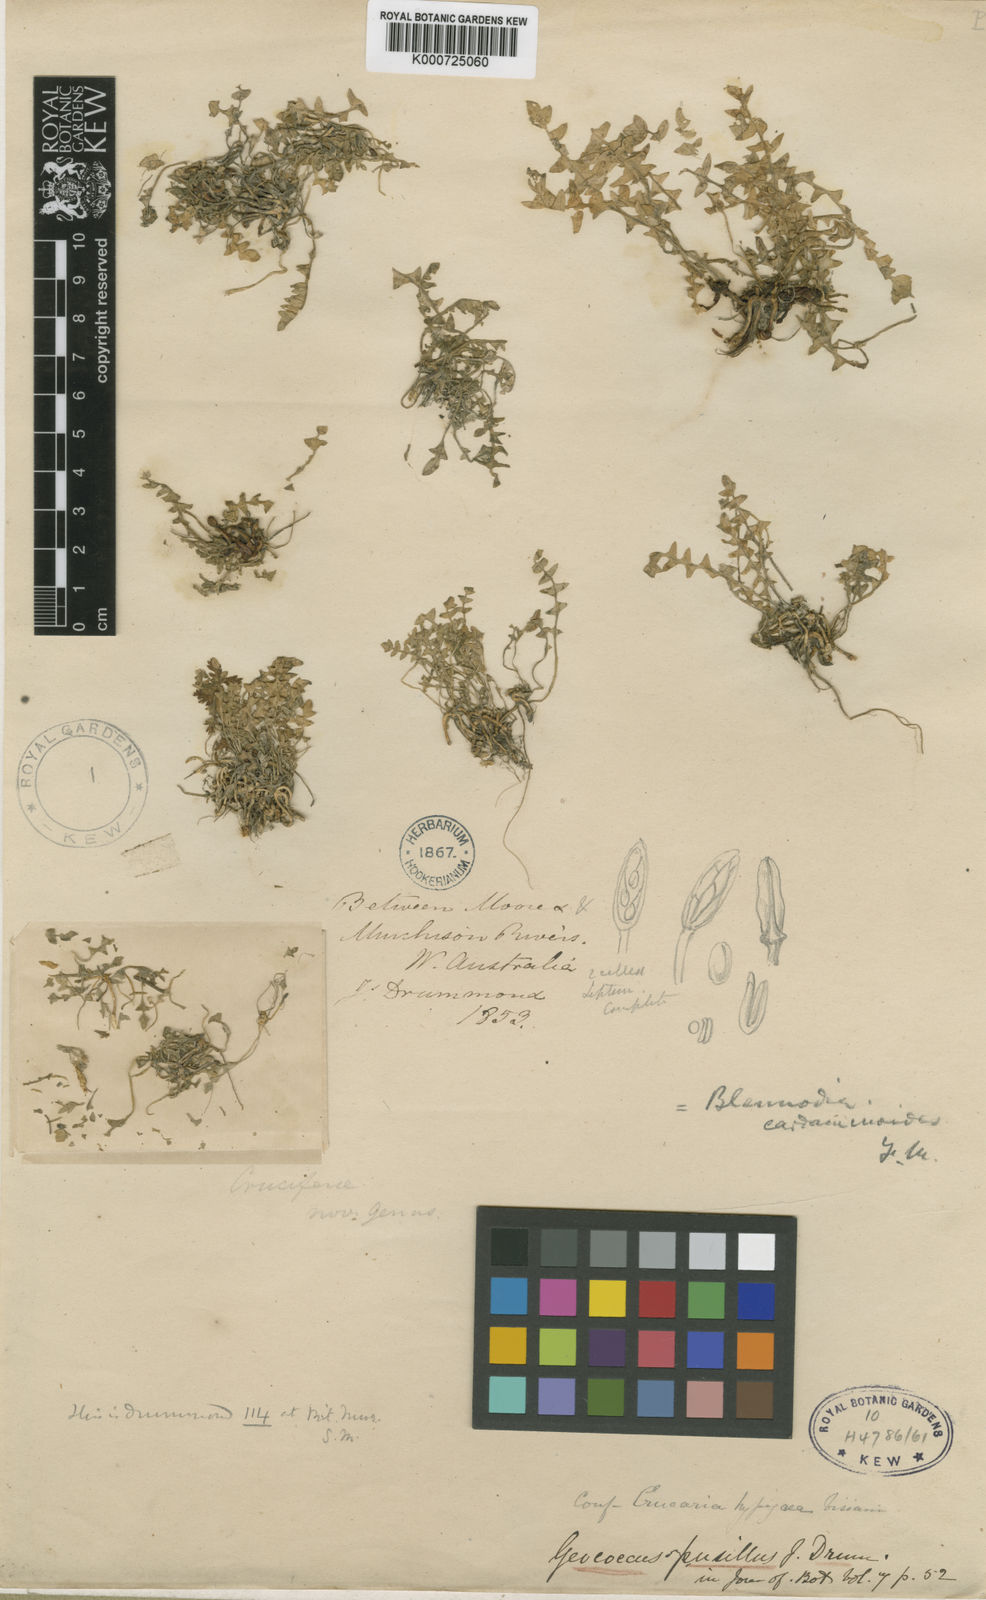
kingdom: Plantae
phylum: Tracheophyta
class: Magnoliopsida
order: Brassicales
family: Brassicaceae
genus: Geococcus
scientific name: Geococcus pusillus
